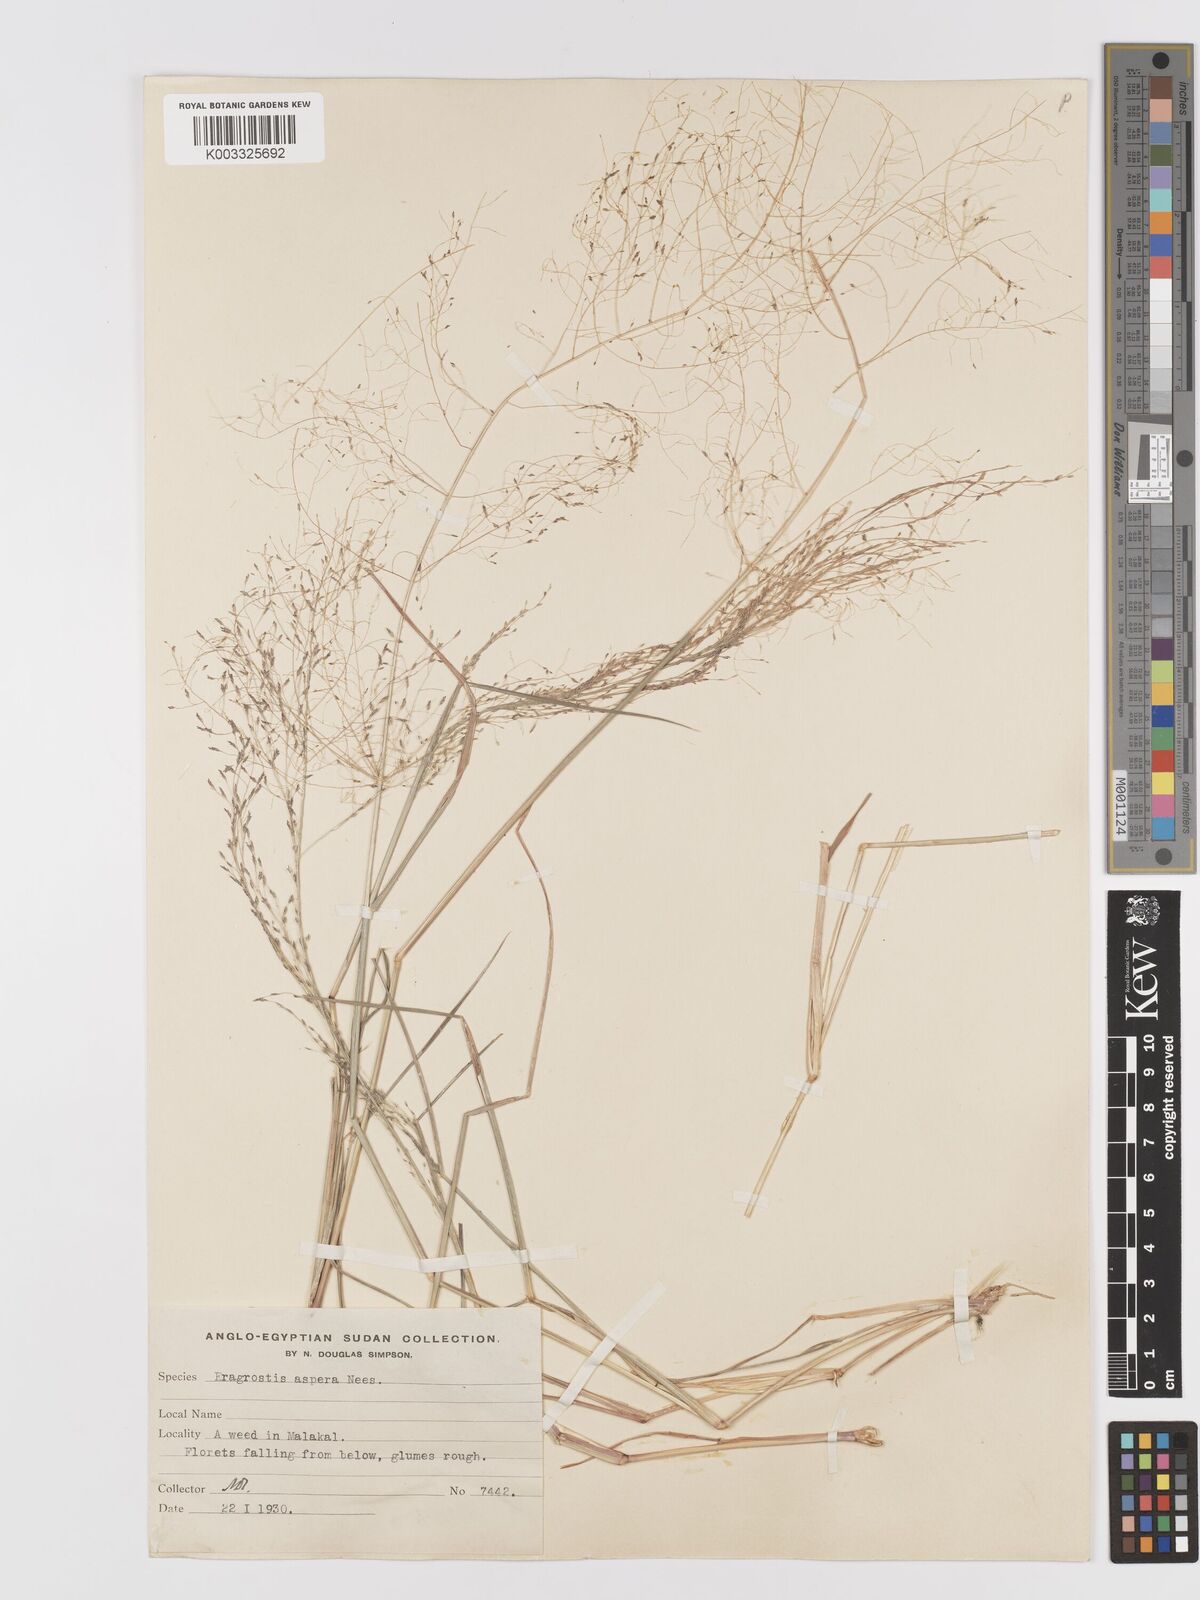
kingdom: Plantae
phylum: Tracheophyta
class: Liliopsida
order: Poales
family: Poaceae
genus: Eragrostis
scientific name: Eragrostis pilosa
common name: Indian lovegrass
